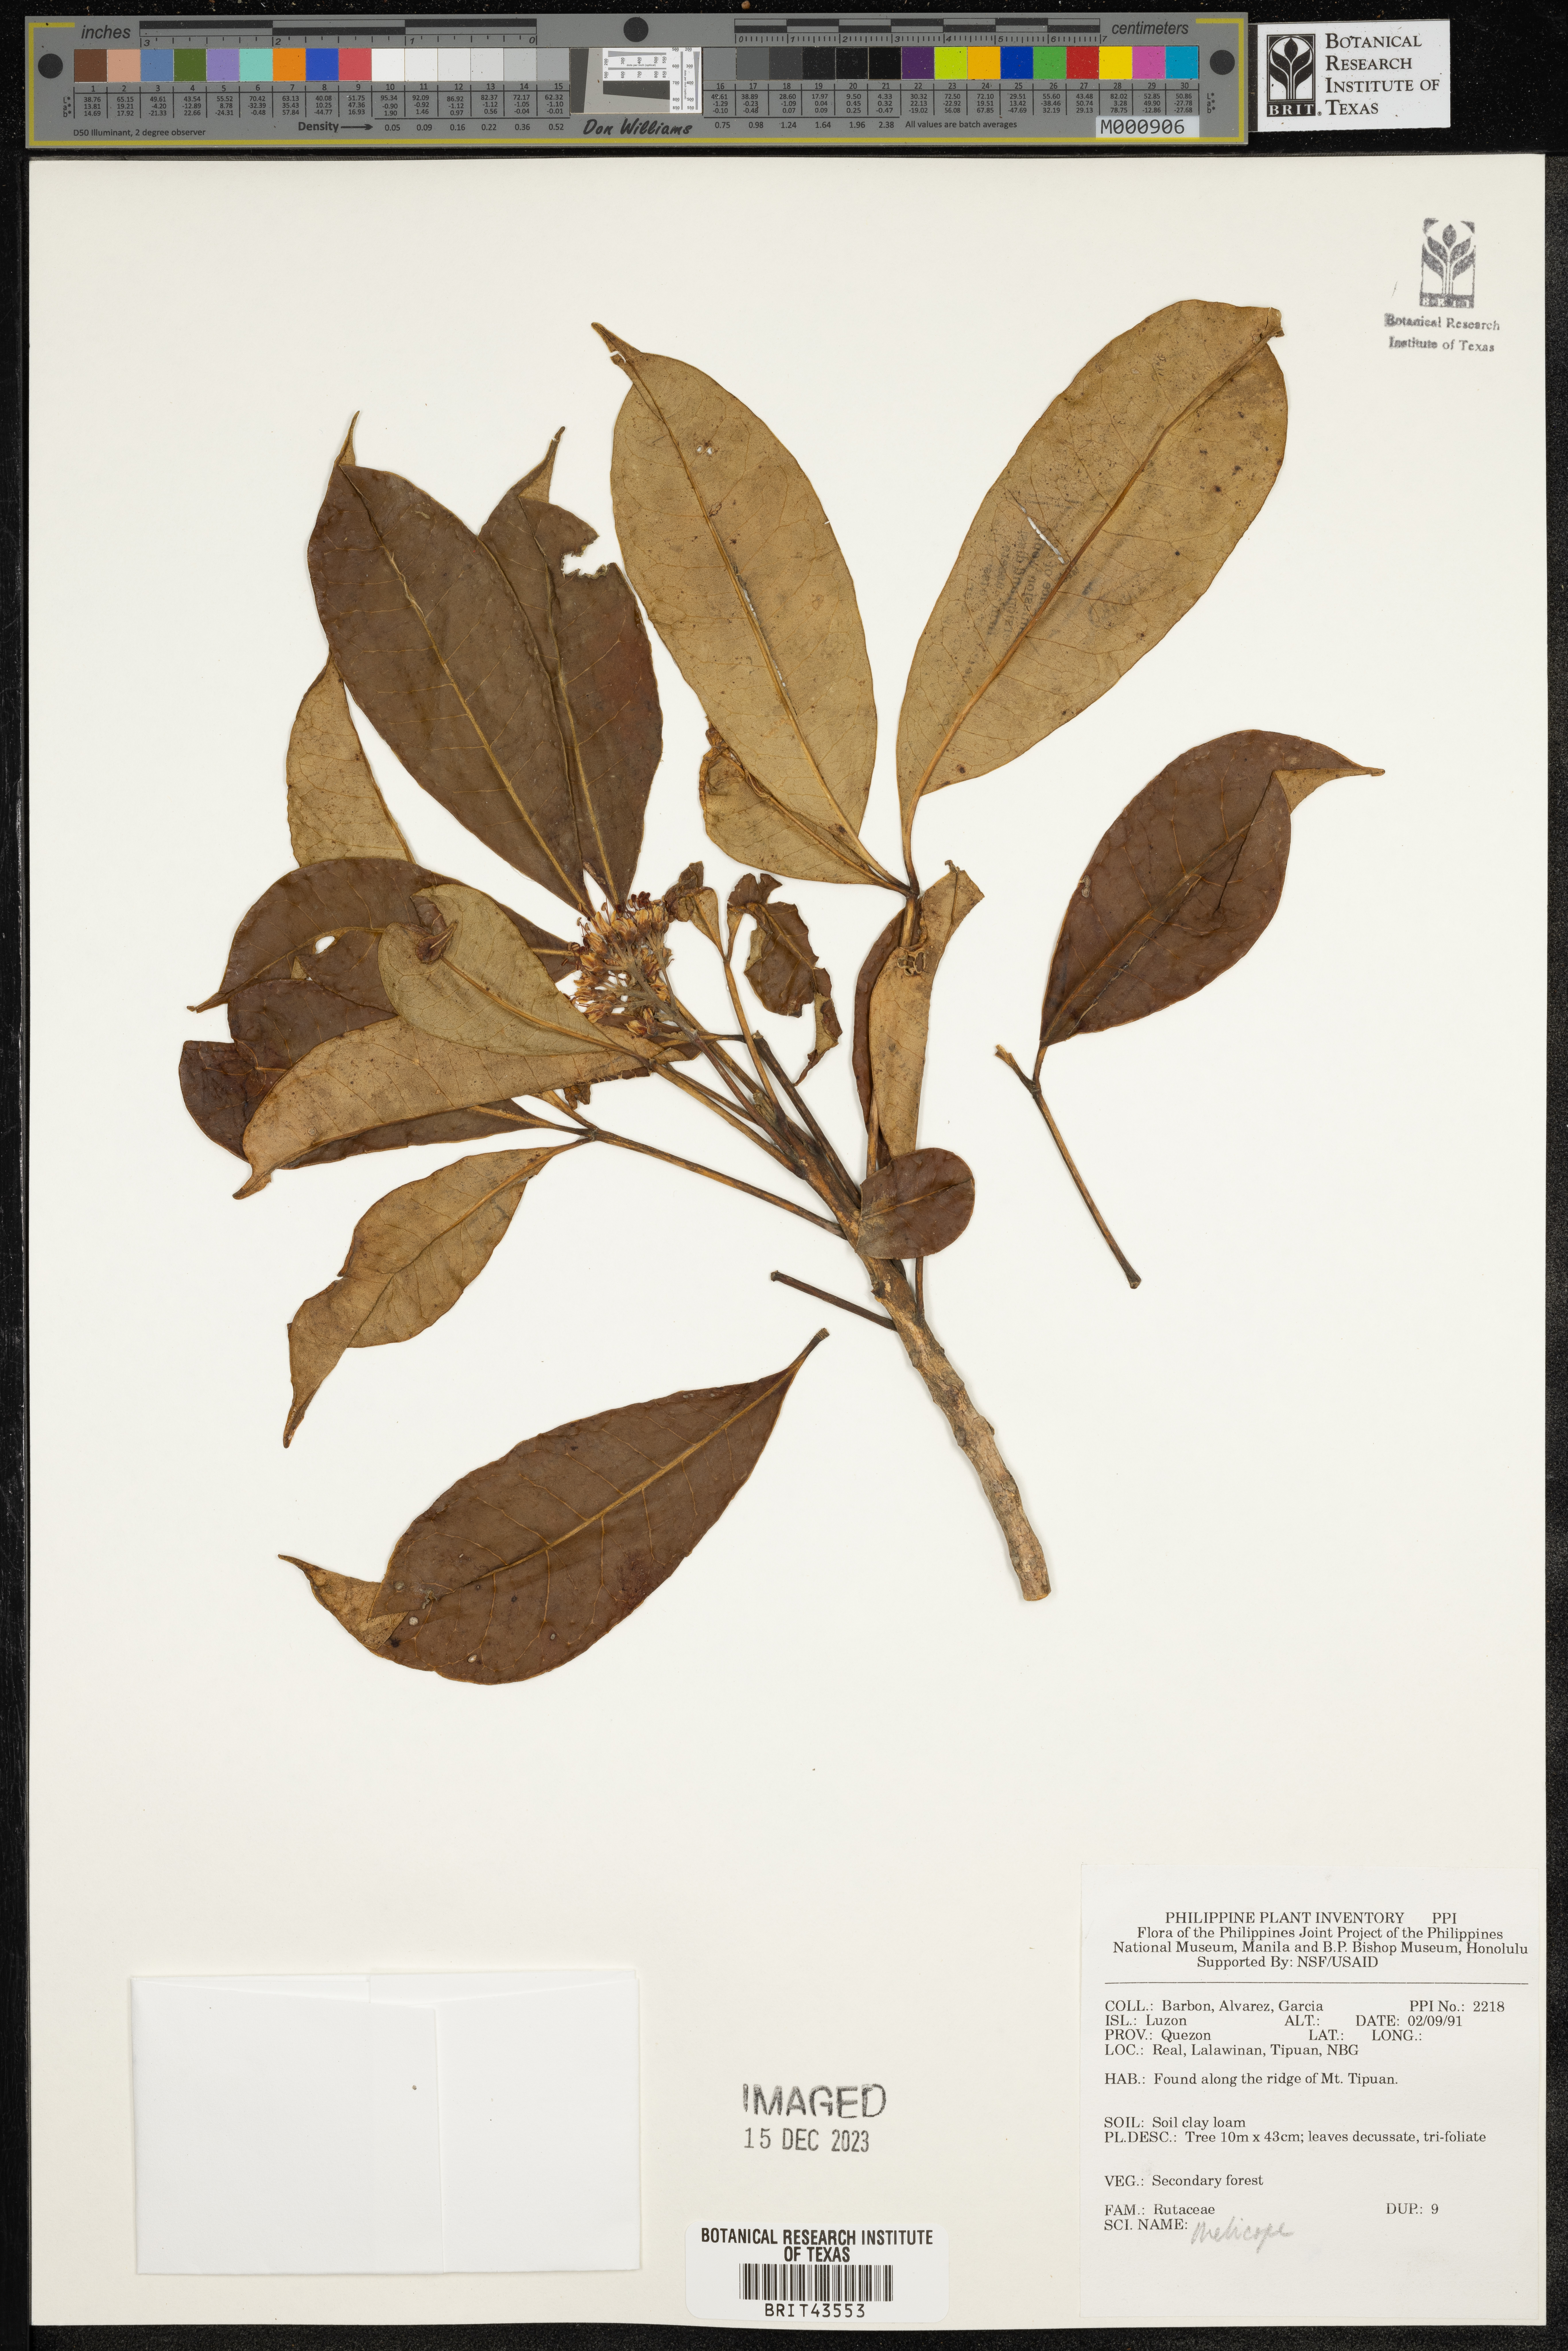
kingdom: Plantae
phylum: Tracheophyta
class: Magnoliopsida
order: Sapindales
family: Rutaceae
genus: Melicope
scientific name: Melicope
